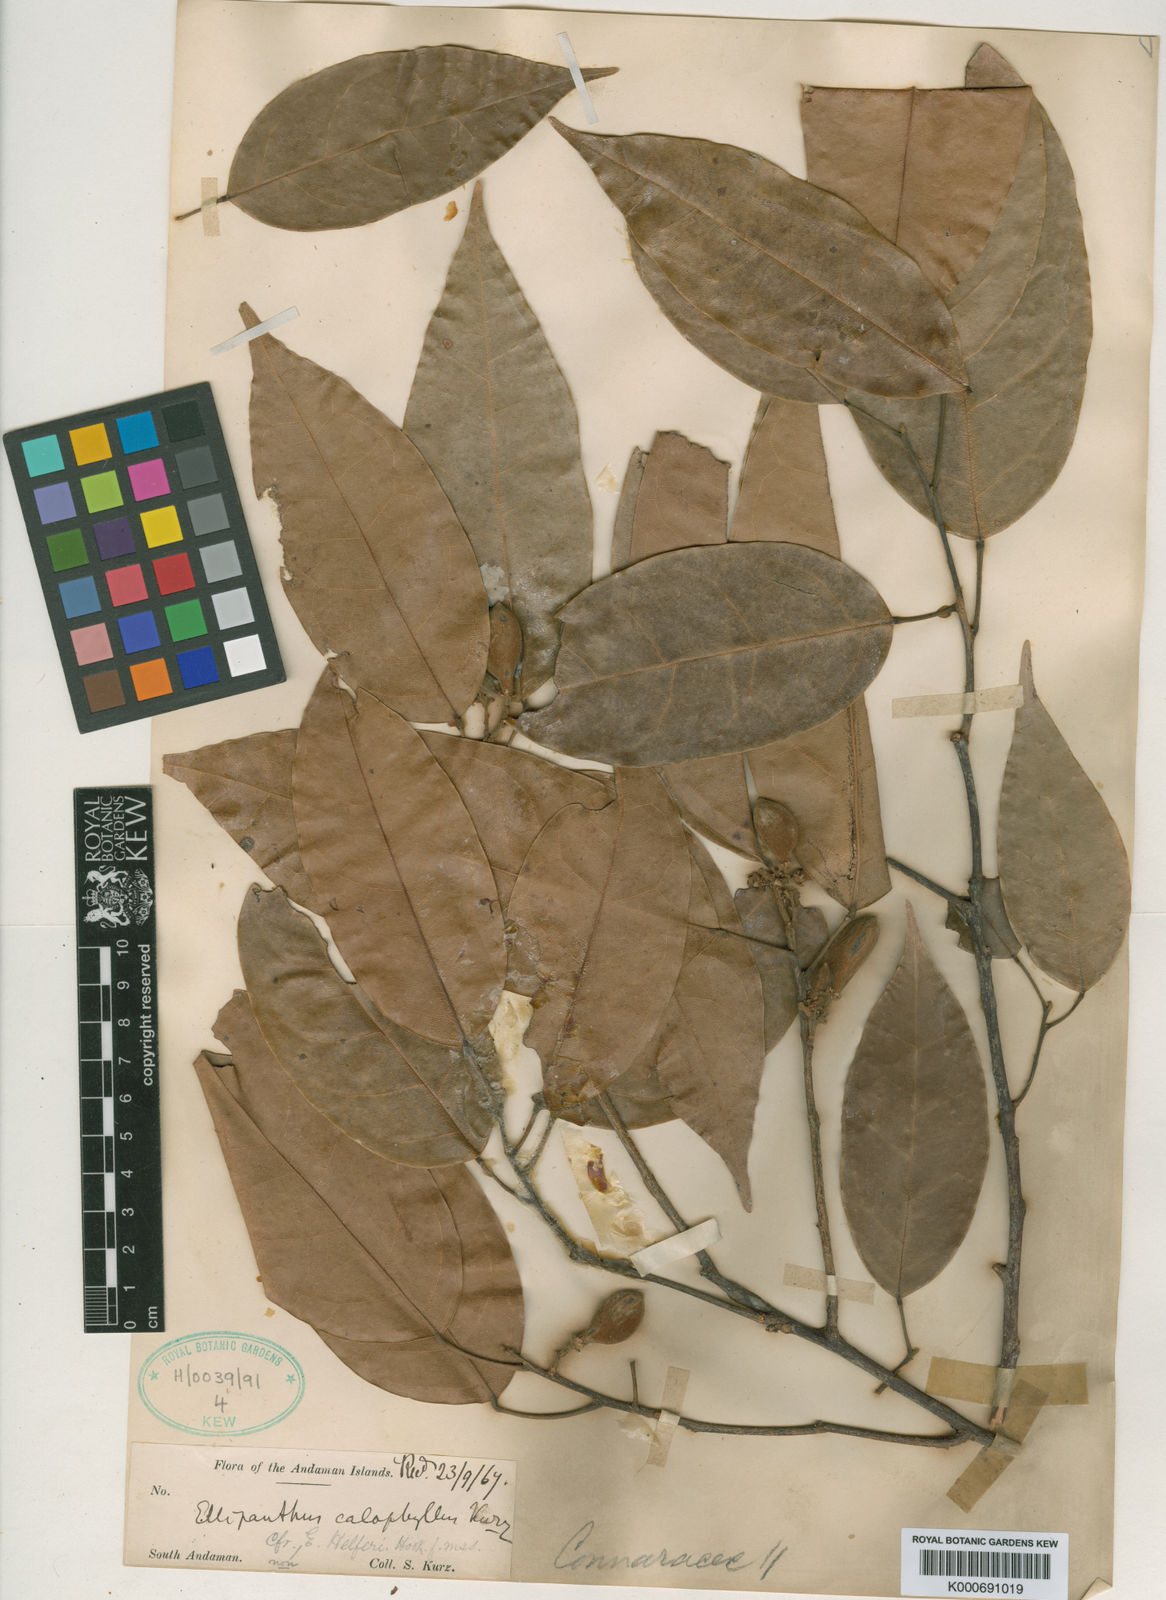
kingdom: Plantae
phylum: Tracheophyta
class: Magnoliopsida
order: Oxalidales
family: Connaraceae
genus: Ellipanthus
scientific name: Ellipanthus calophyllus
